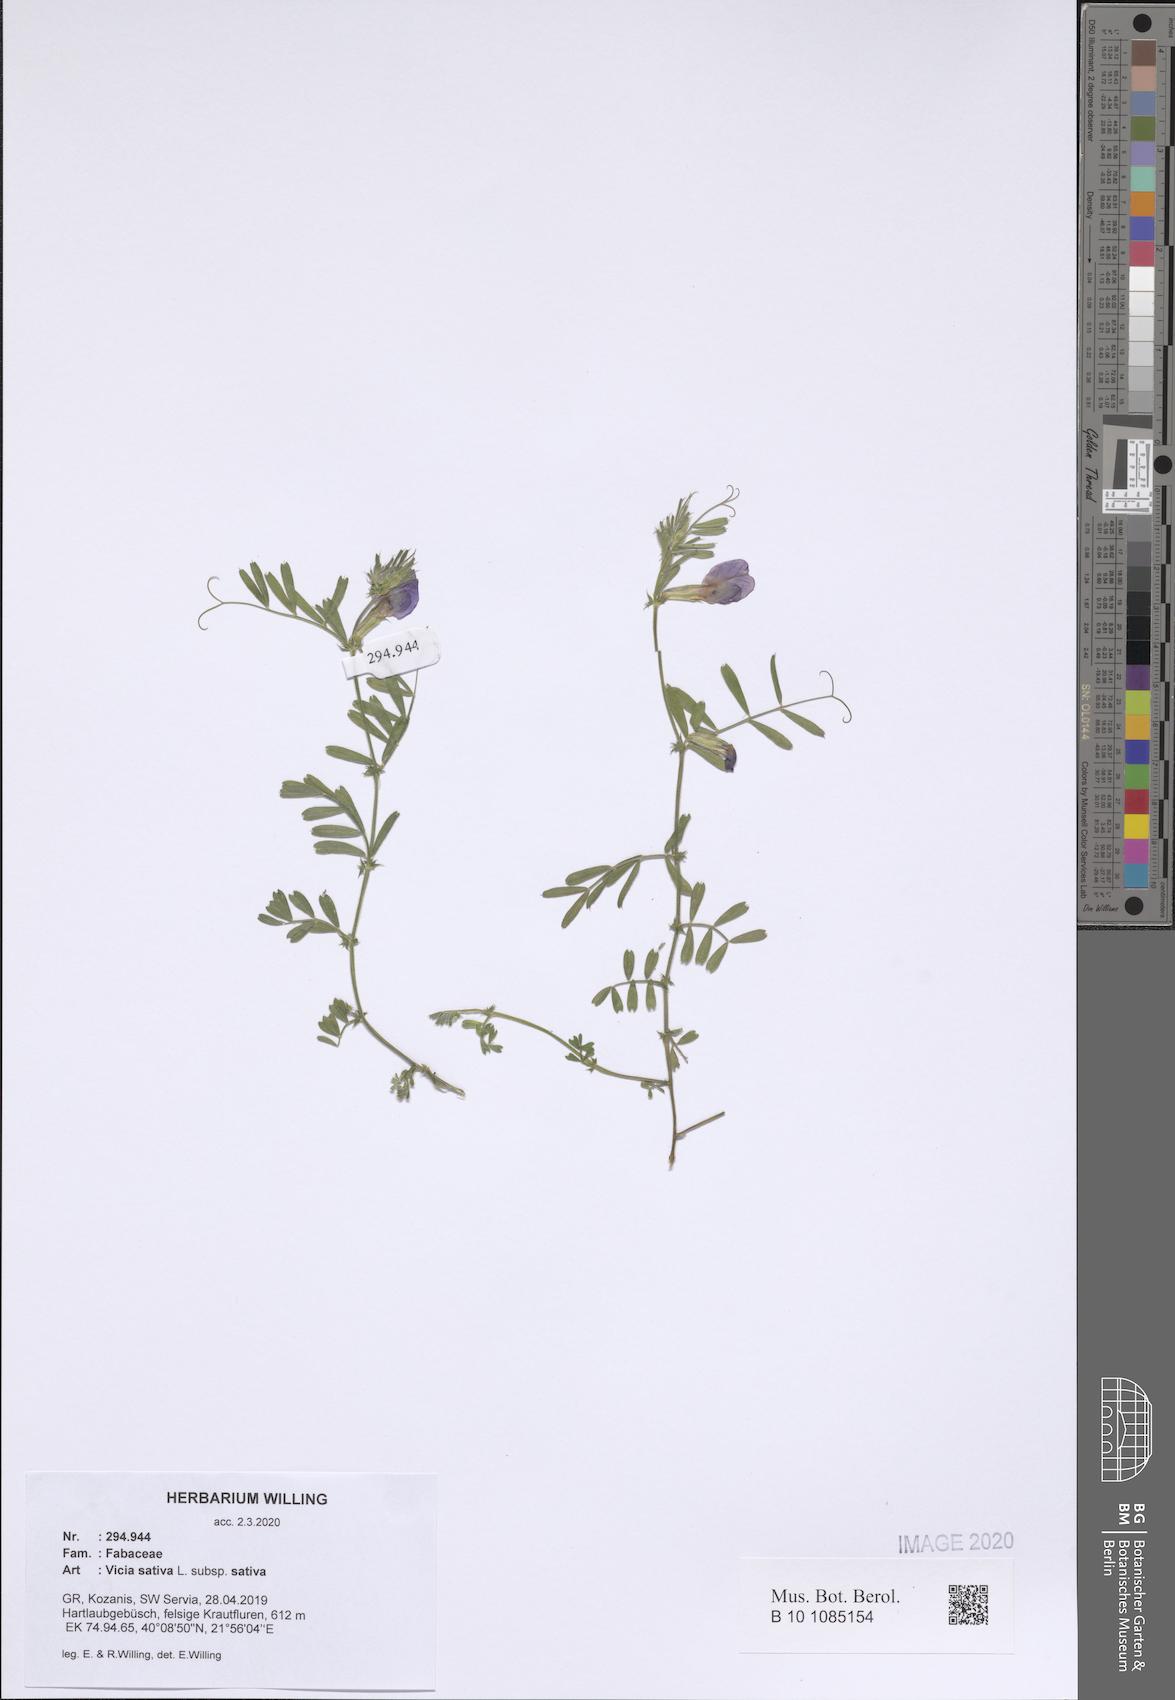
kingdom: Plantae
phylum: Tracheophyta
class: Magnoliopsida
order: Fabales
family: Fabaceae
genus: Vicia
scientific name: Vicia sativa
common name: Garden vetch
